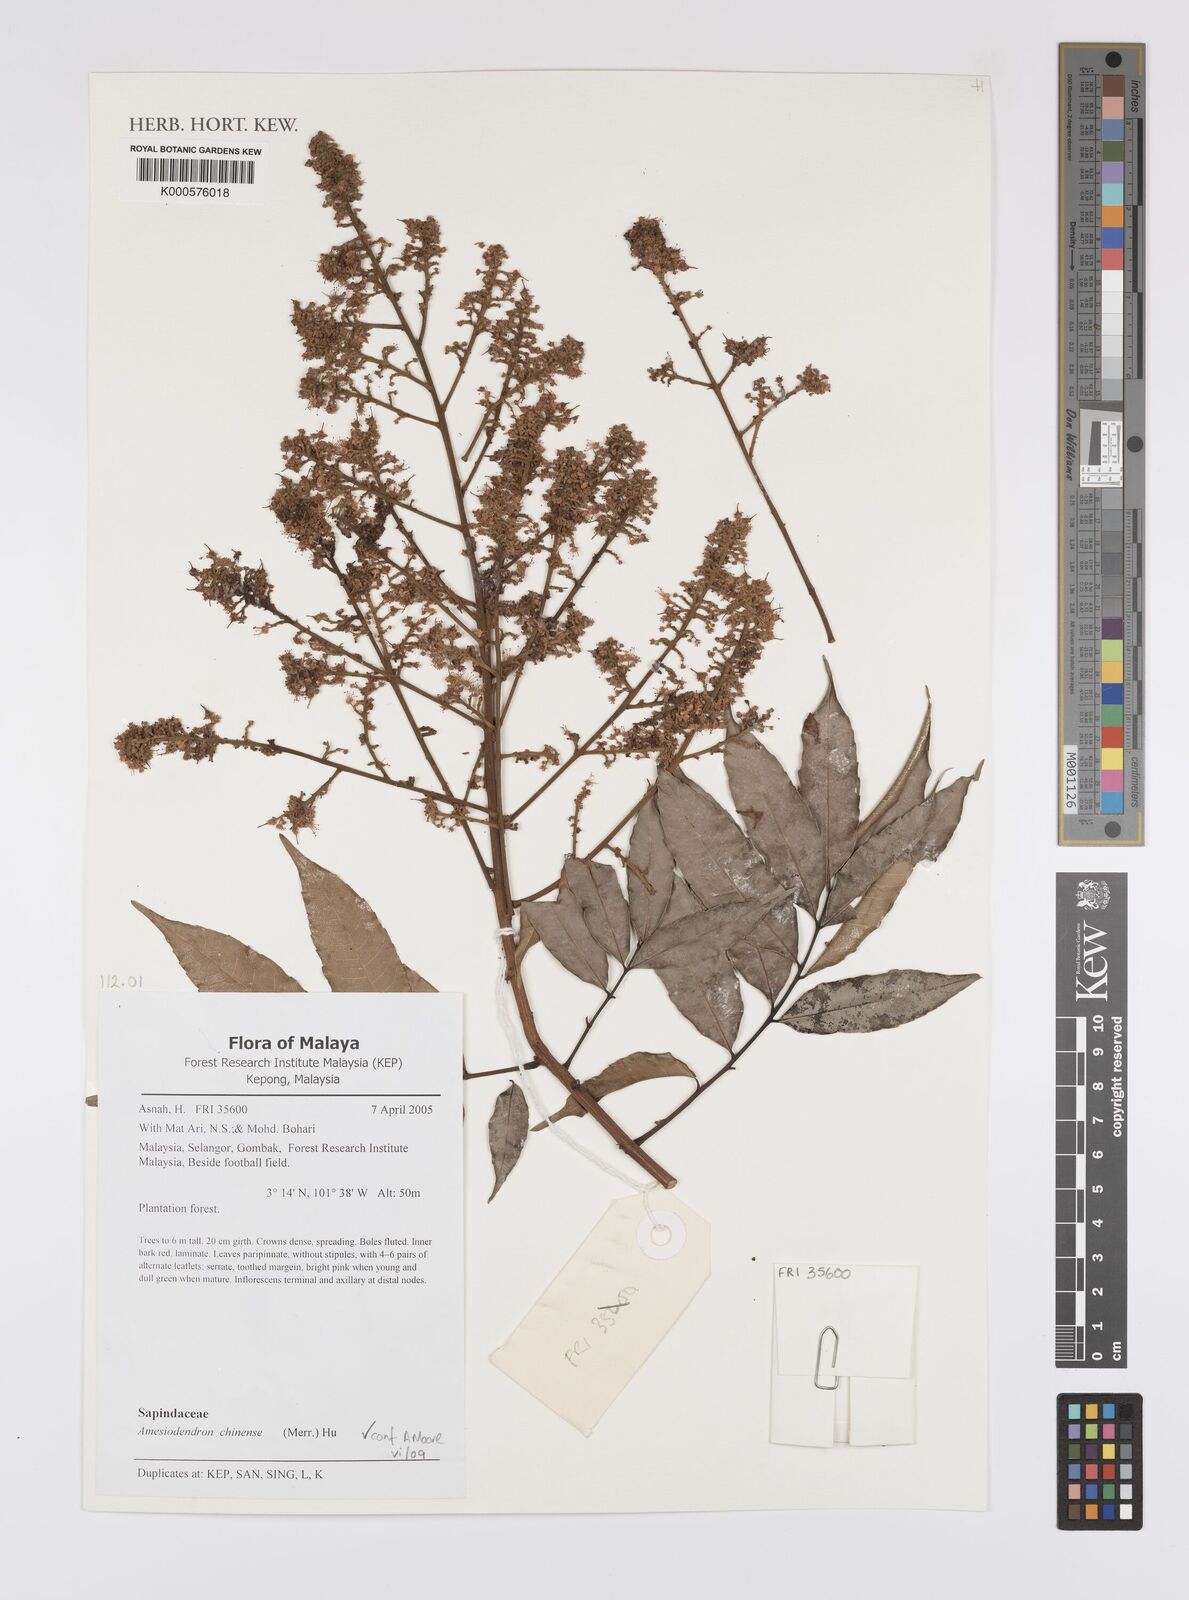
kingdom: Plantae
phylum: Tracheophyta
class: Magnoliopsida
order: Sapindales
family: Sapindaceae
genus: Amesiodendron
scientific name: Amesiodendron chinense
